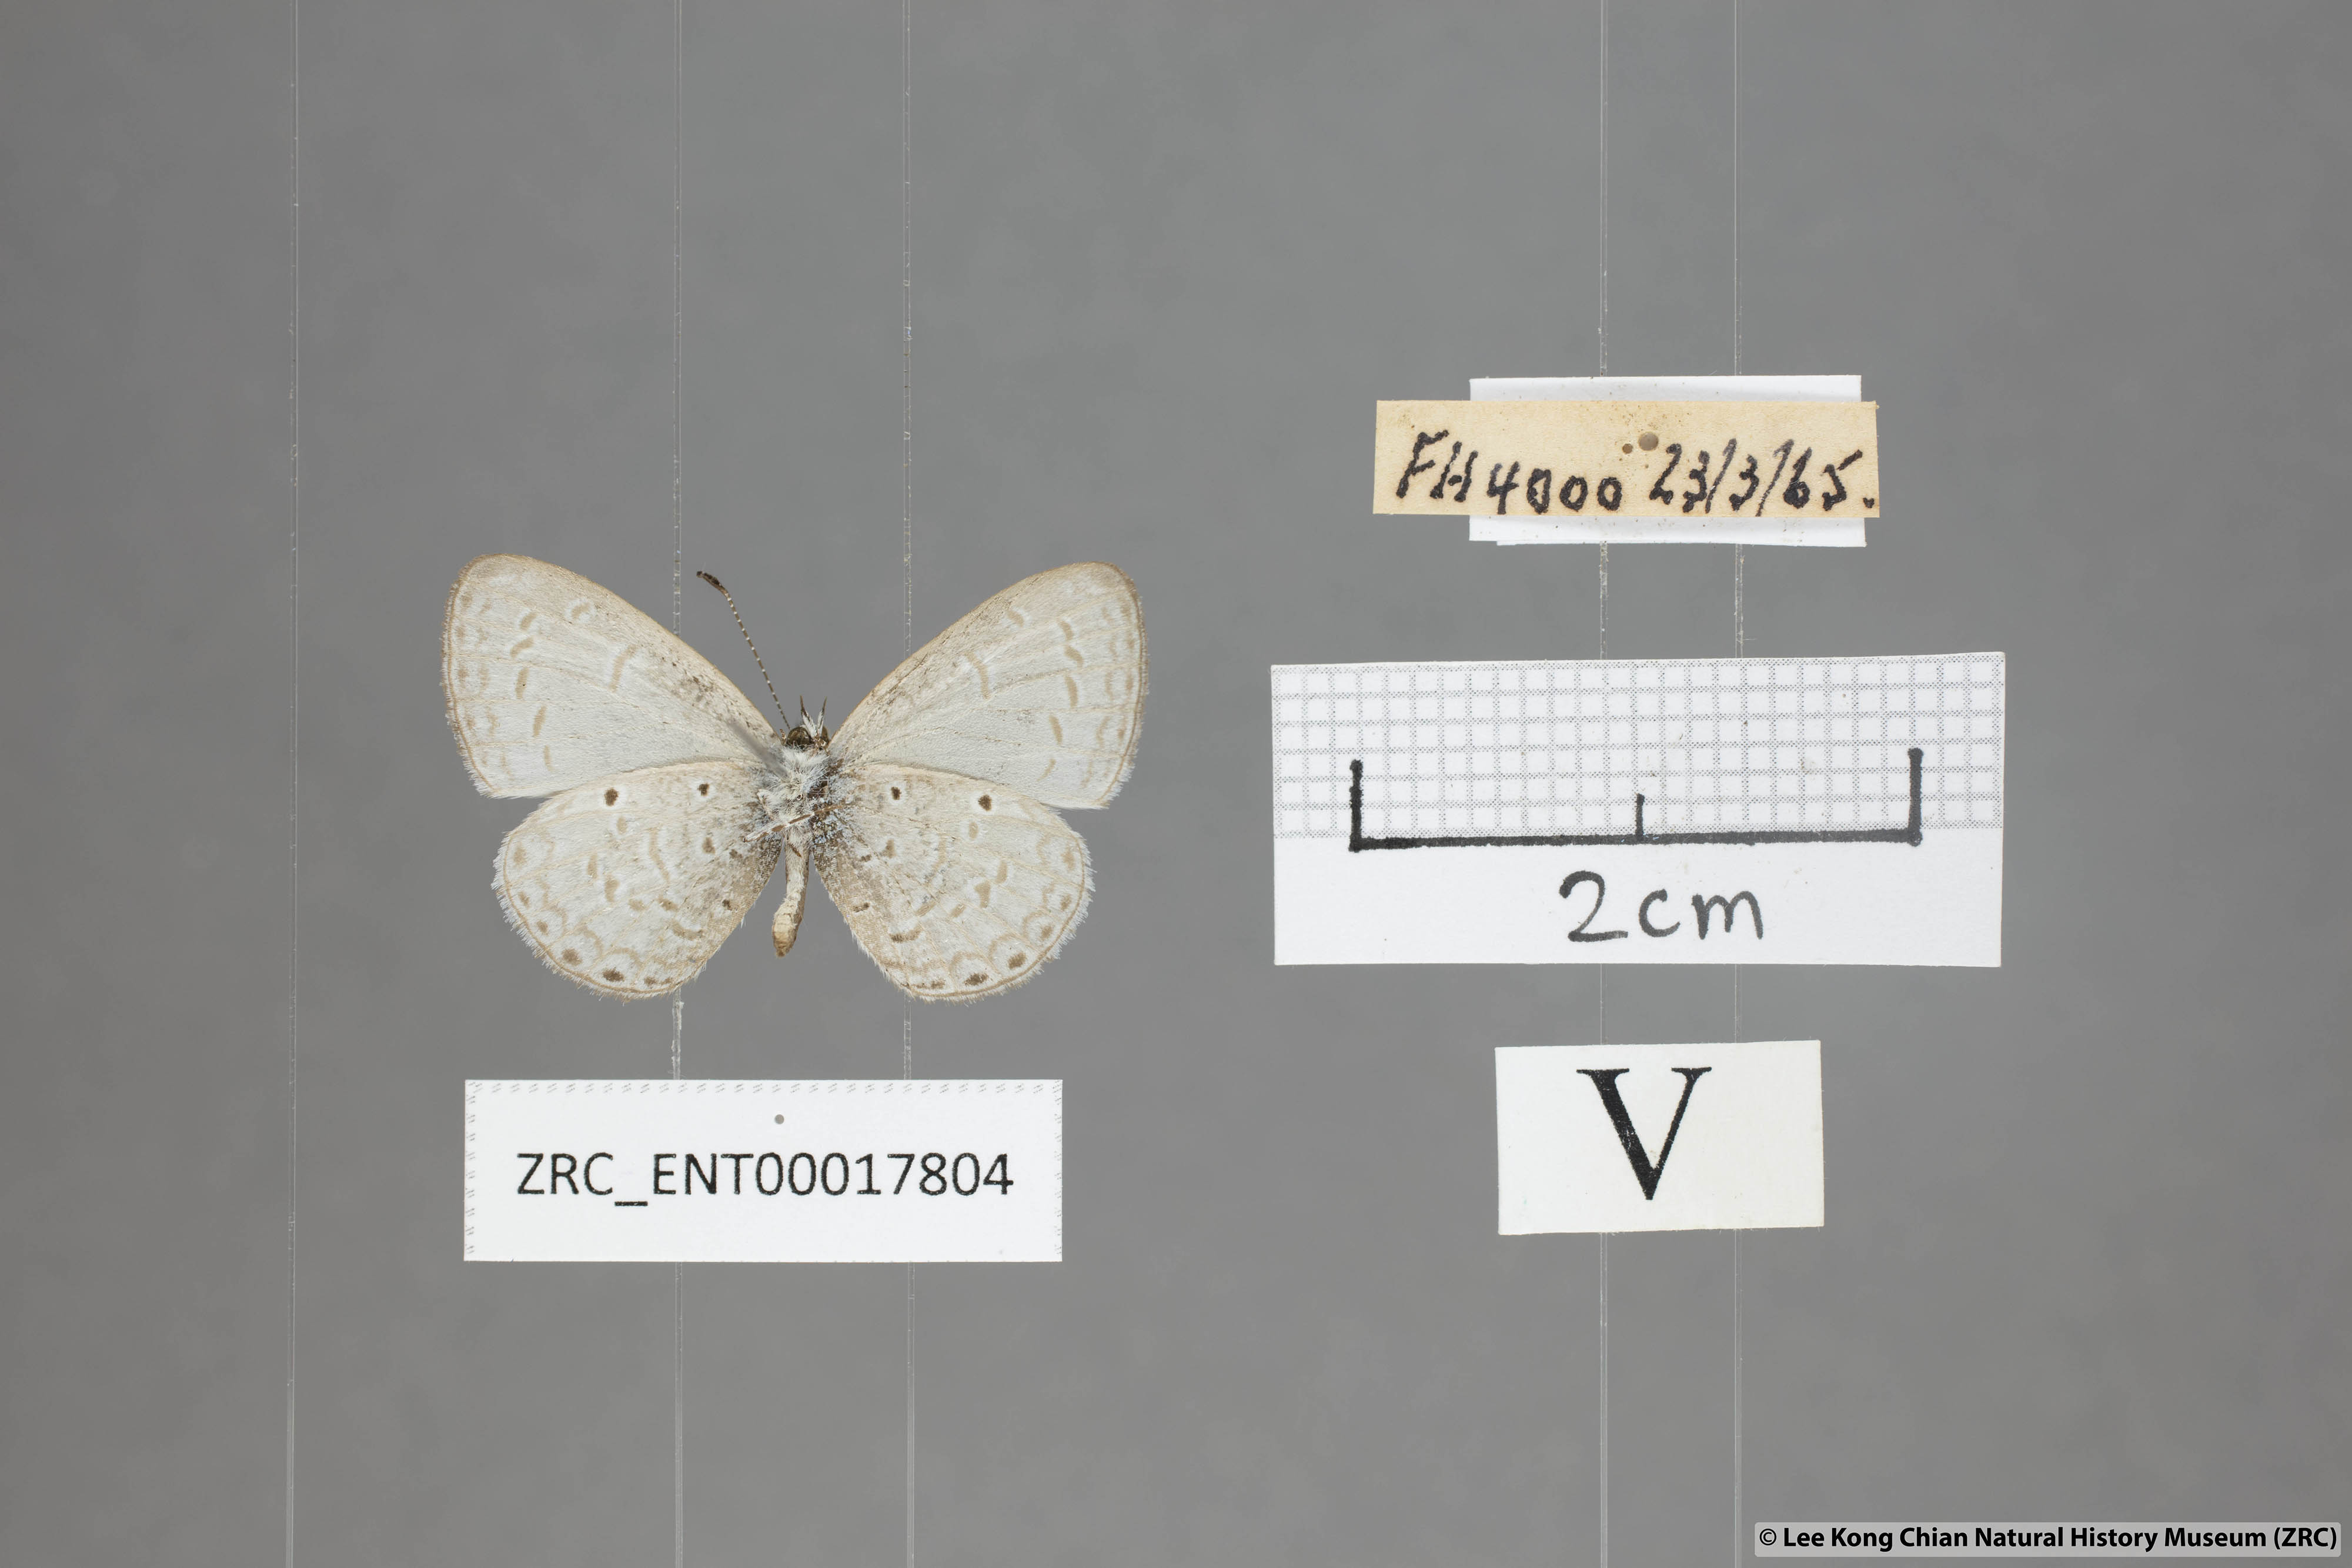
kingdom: Animalia
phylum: Arthropoda
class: Insecta
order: Lepidoptera
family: Lycaenidae
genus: Monodontides
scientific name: Monodontides
